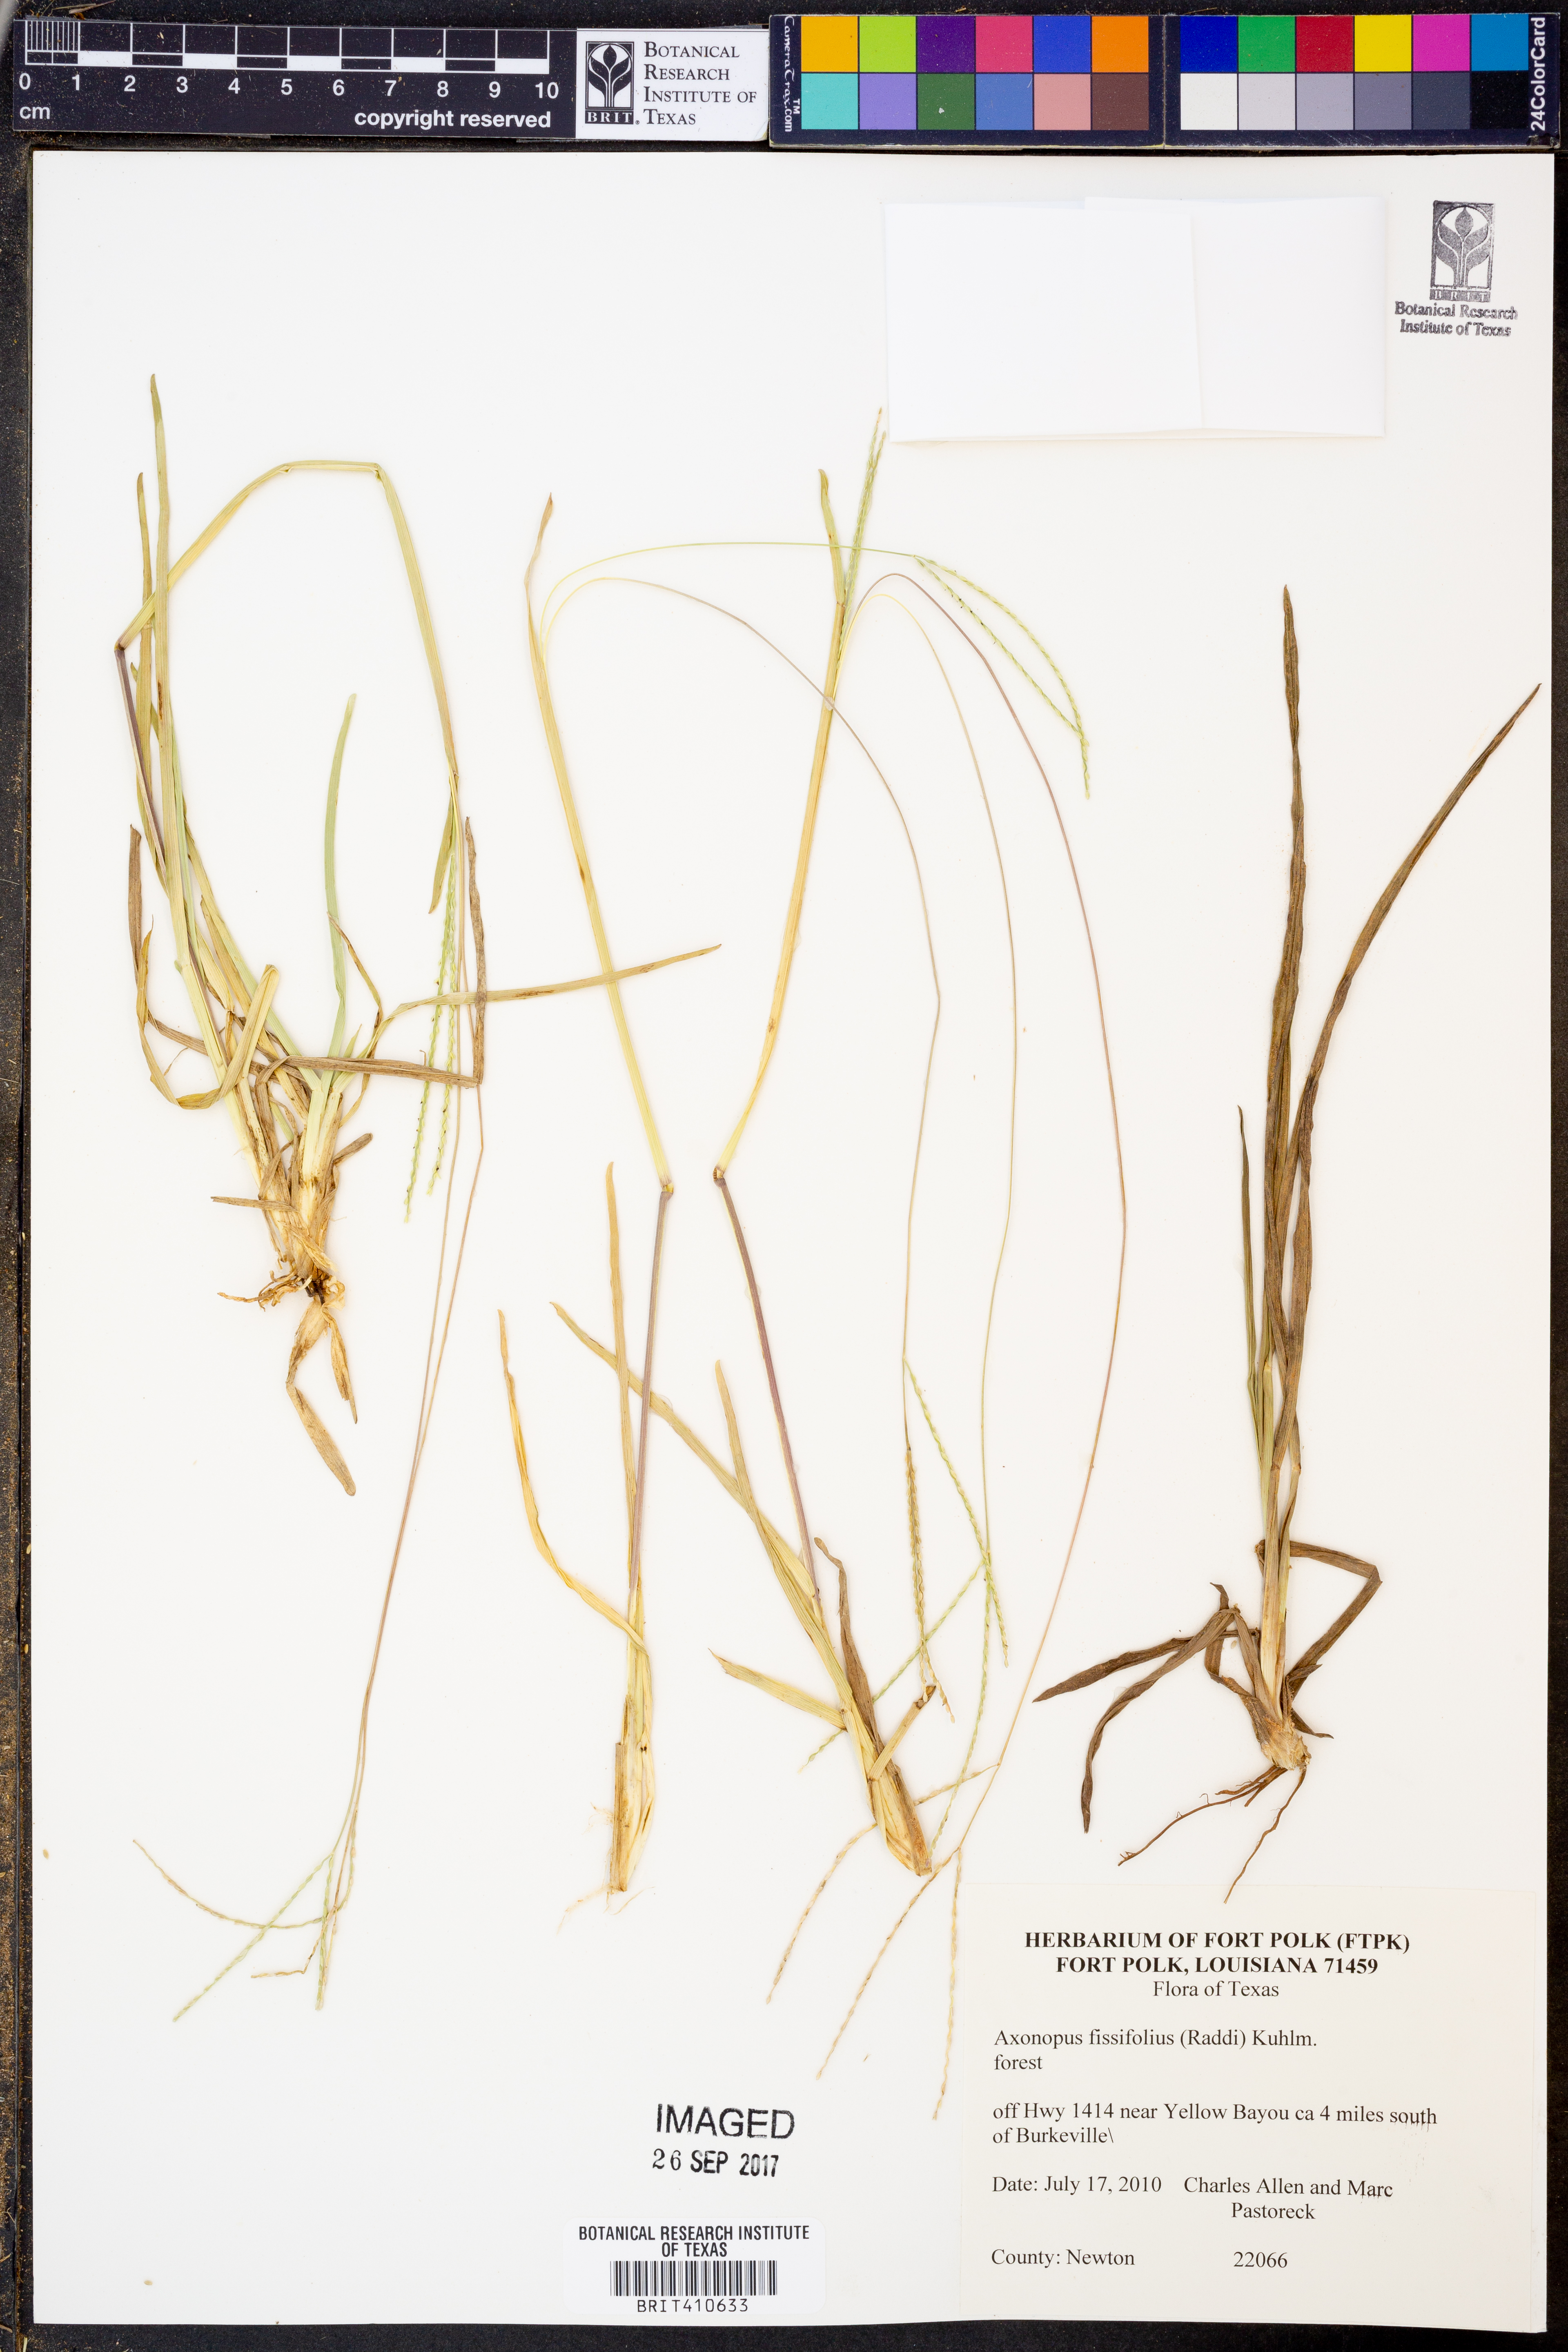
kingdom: Plantae
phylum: Tracheophyta
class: Liliopsida
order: Poales
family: Poaceae
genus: Axonopus
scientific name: Axonopus fissifolius
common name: Common carpetgrass
